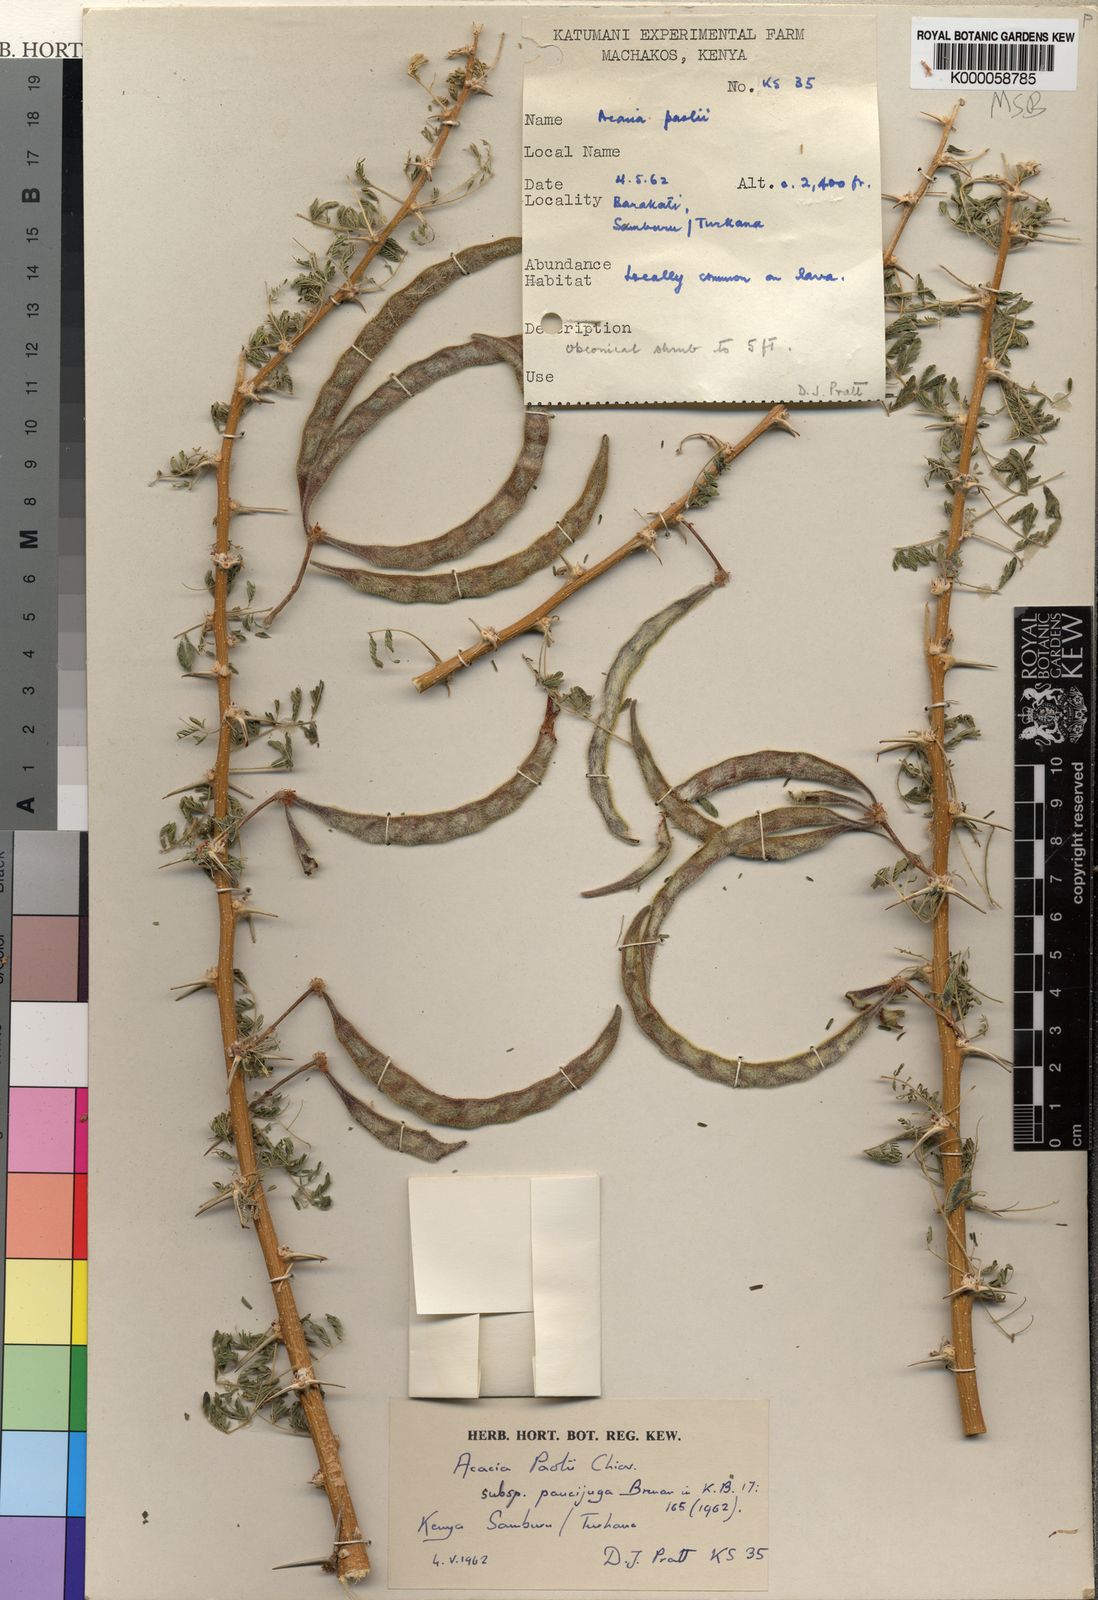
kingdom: Plantae
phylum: Tracheophyta
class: Magnoliopsida
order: Fabales
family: Fabaceae
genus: Vachellia
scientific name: Vachellia paolii
